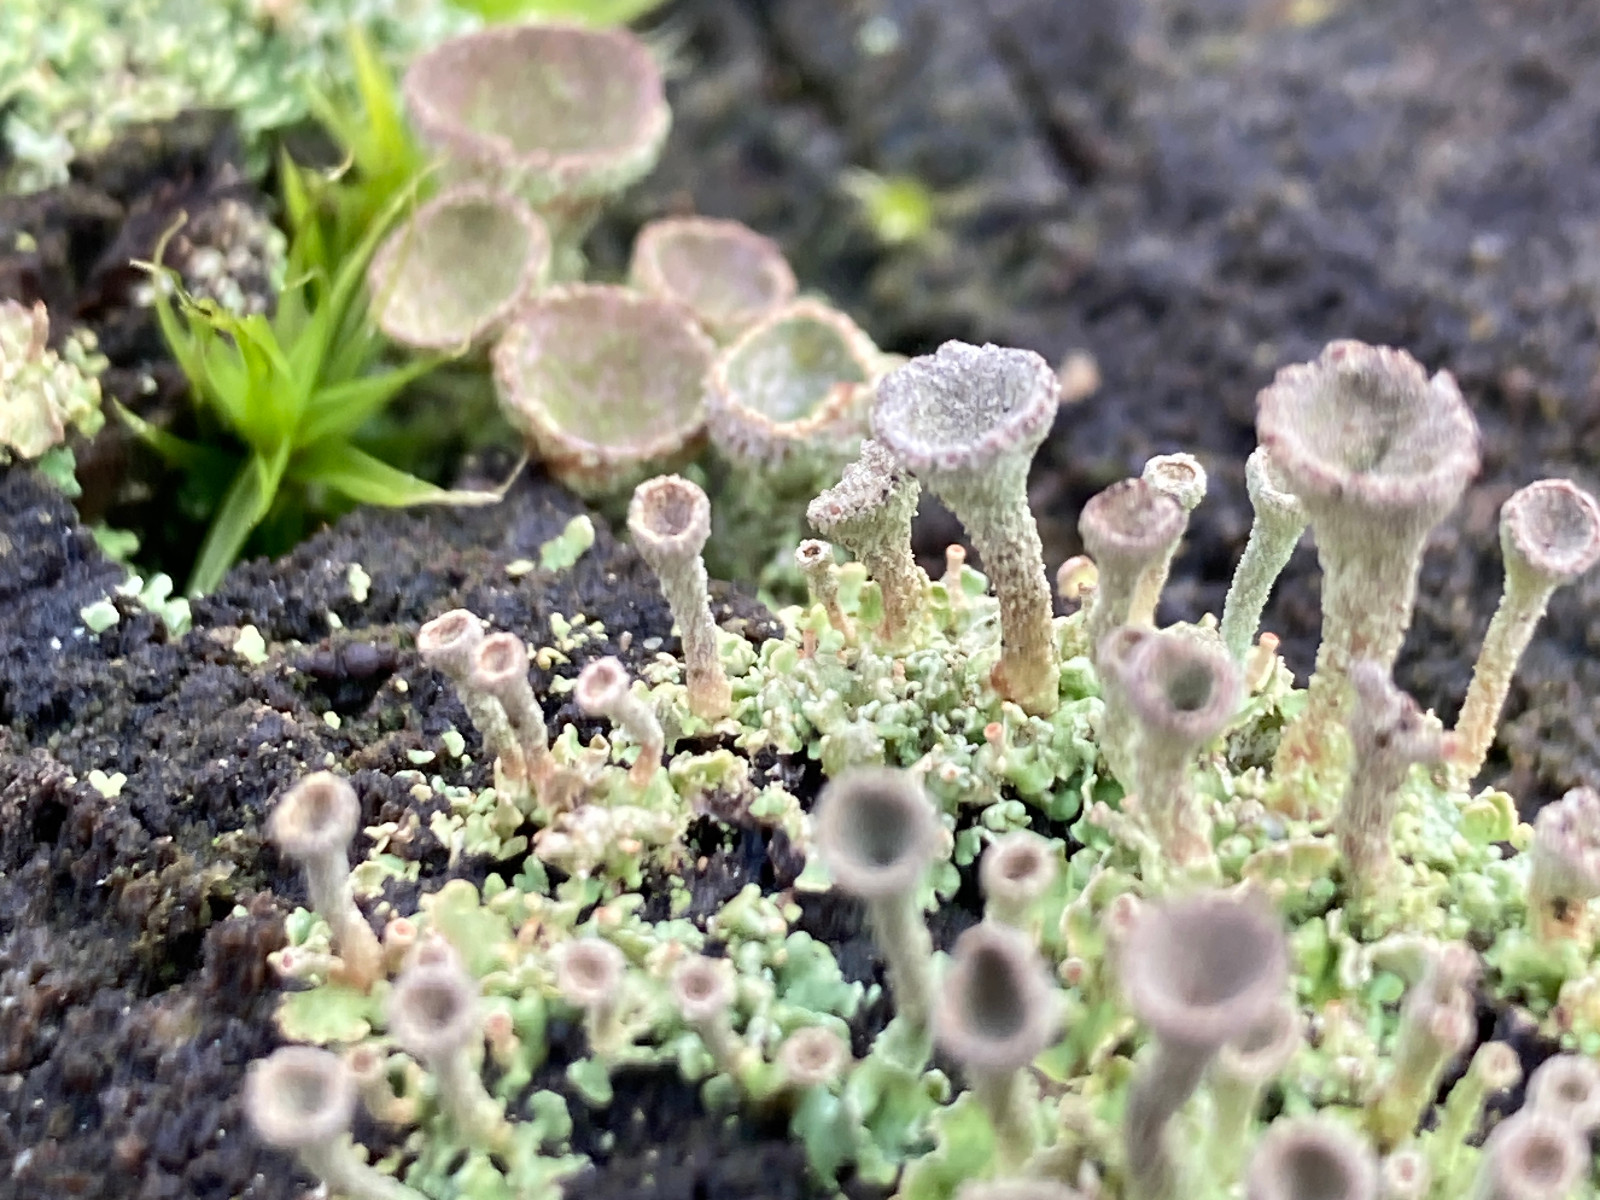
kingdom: Fungi
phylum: Ascomycota
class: Lecanoromycetes
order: Lecanorales
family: Cladoniaceae
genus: Cladonia
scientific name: Cladonia
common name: brungrøn bægerlav
